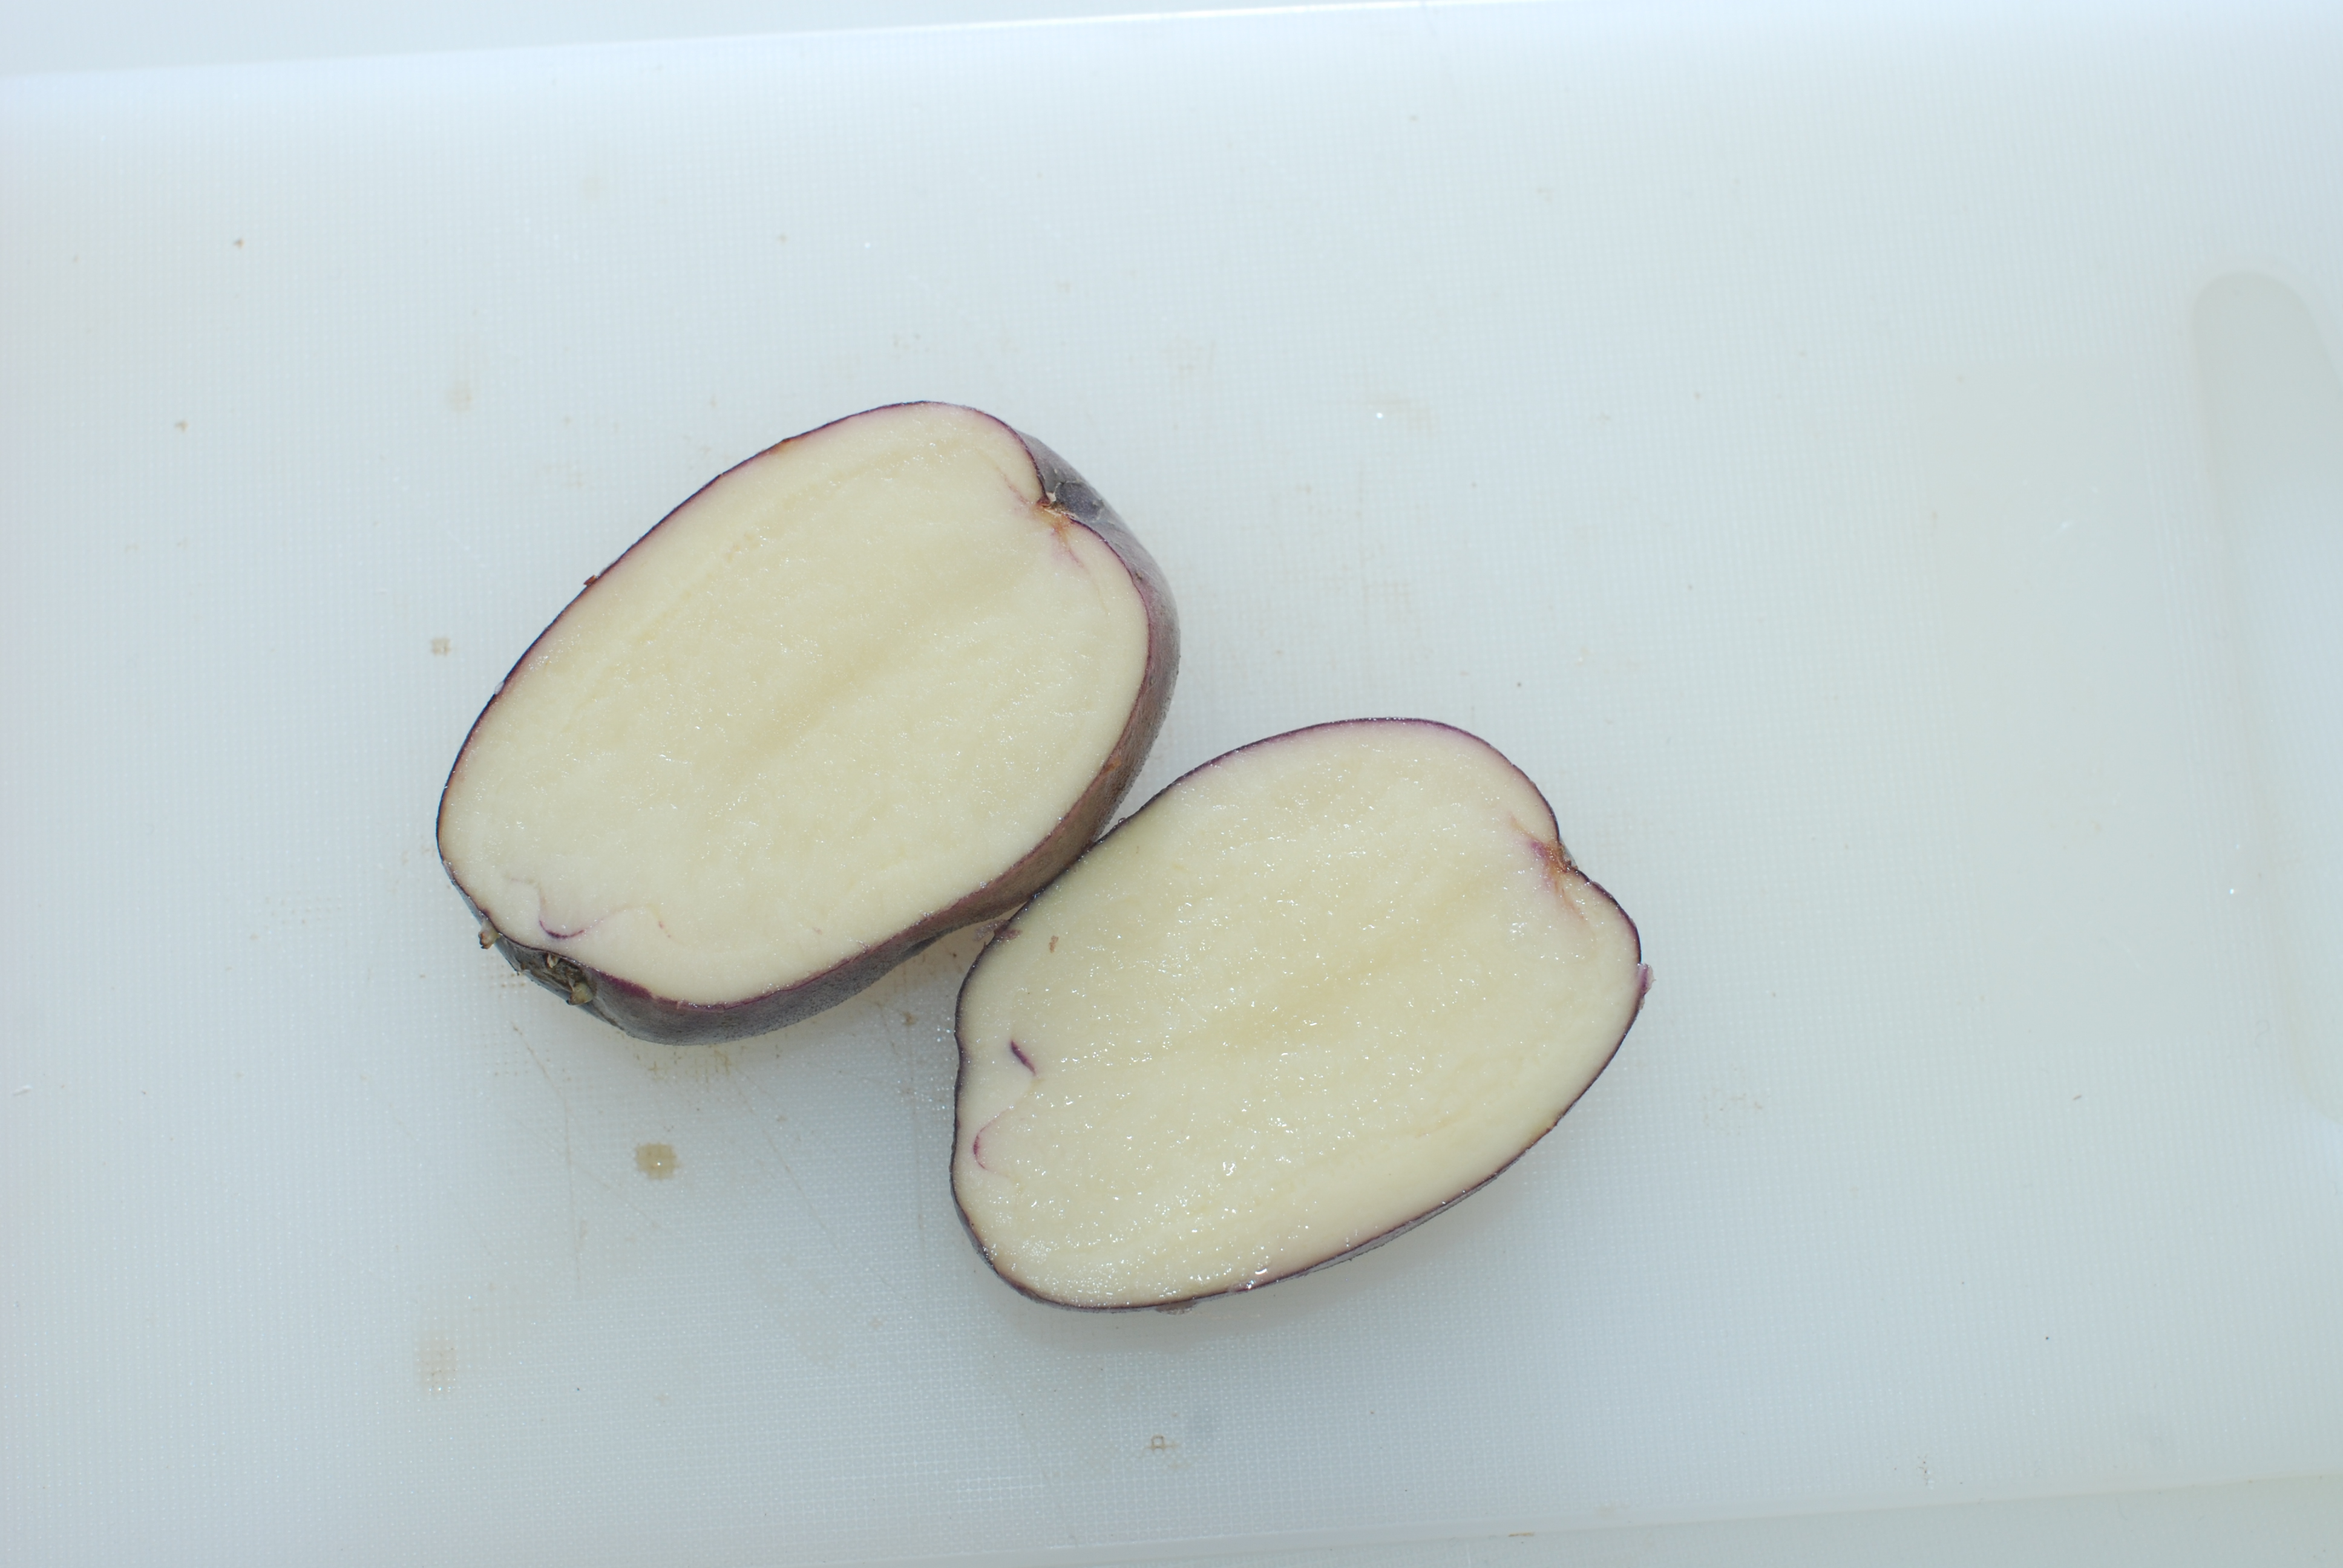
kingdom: Plantae
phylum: Tracheophyta
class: Magnoliopsida
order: Solanales
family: Solanaceae
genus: Solanum
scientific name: Solanum tuberosum
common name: Potato
